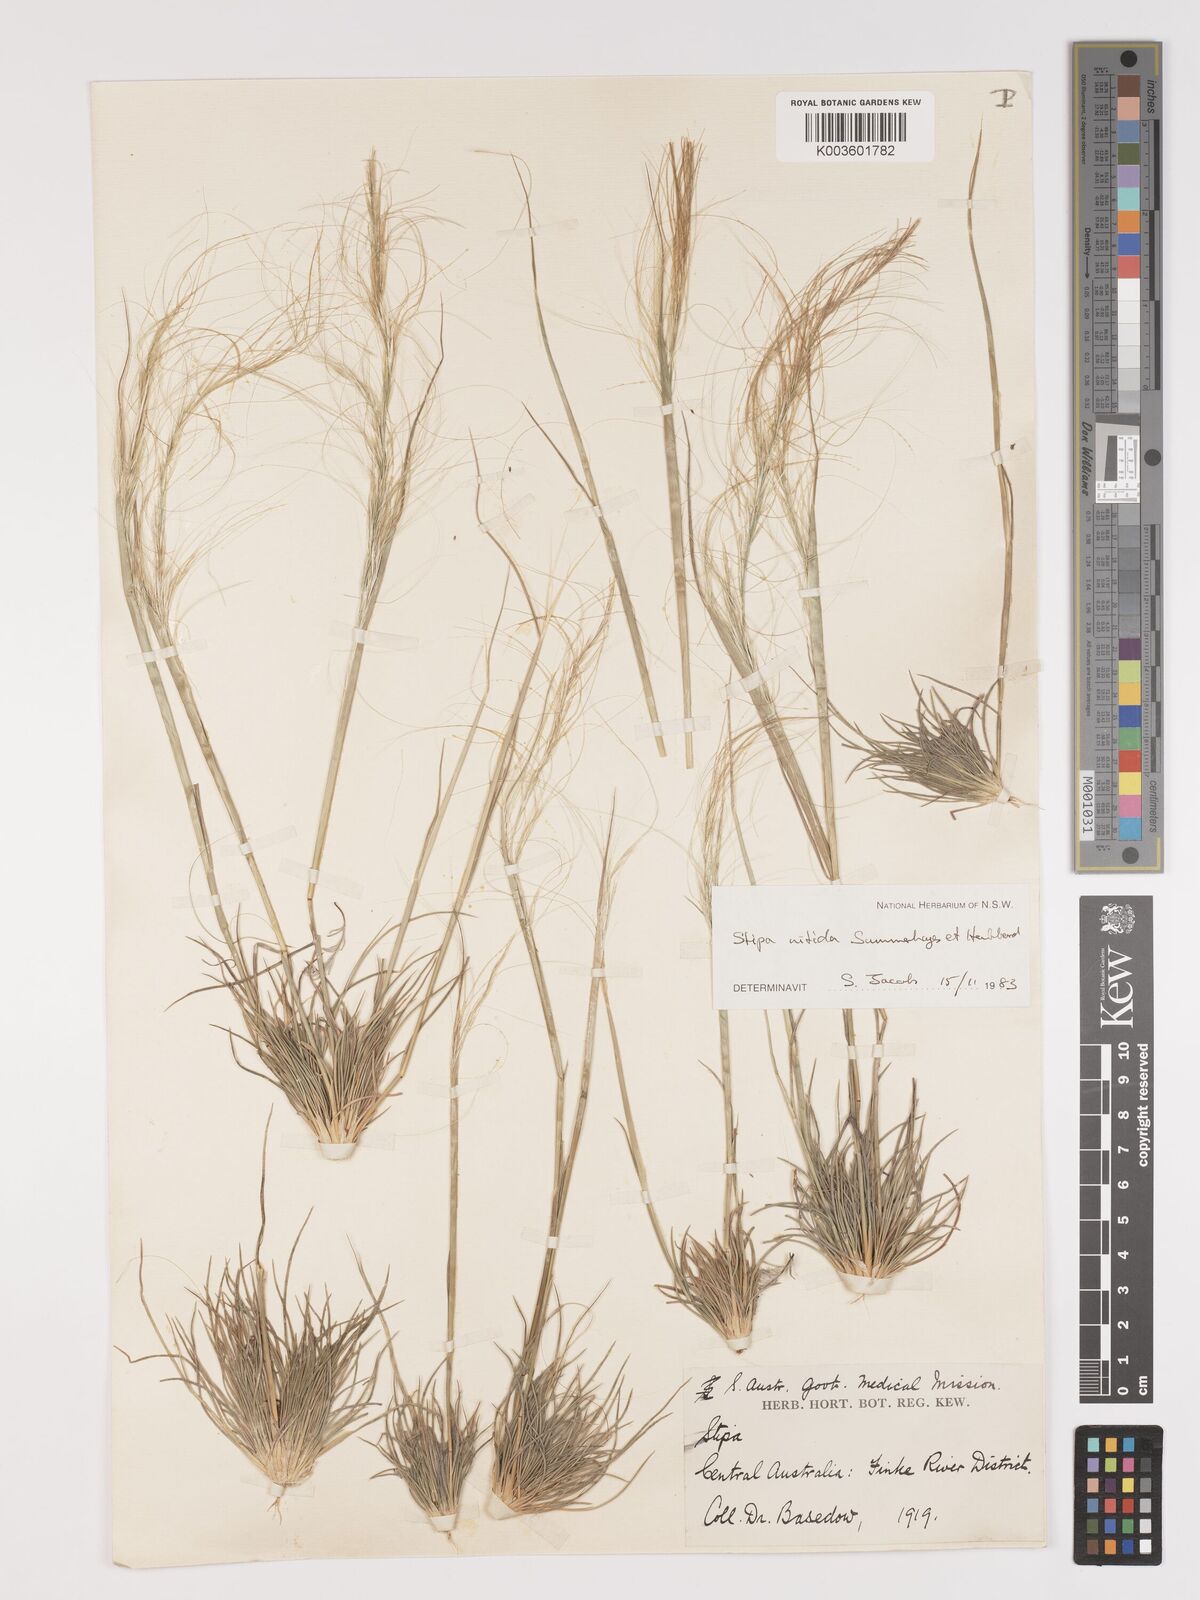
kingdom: Plantae
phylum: Tracheophyta
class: Liliopsida
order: Poales
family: Poaceae
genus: Austrostipa
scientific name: Austrostipa nitida
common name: Balcarra grass
